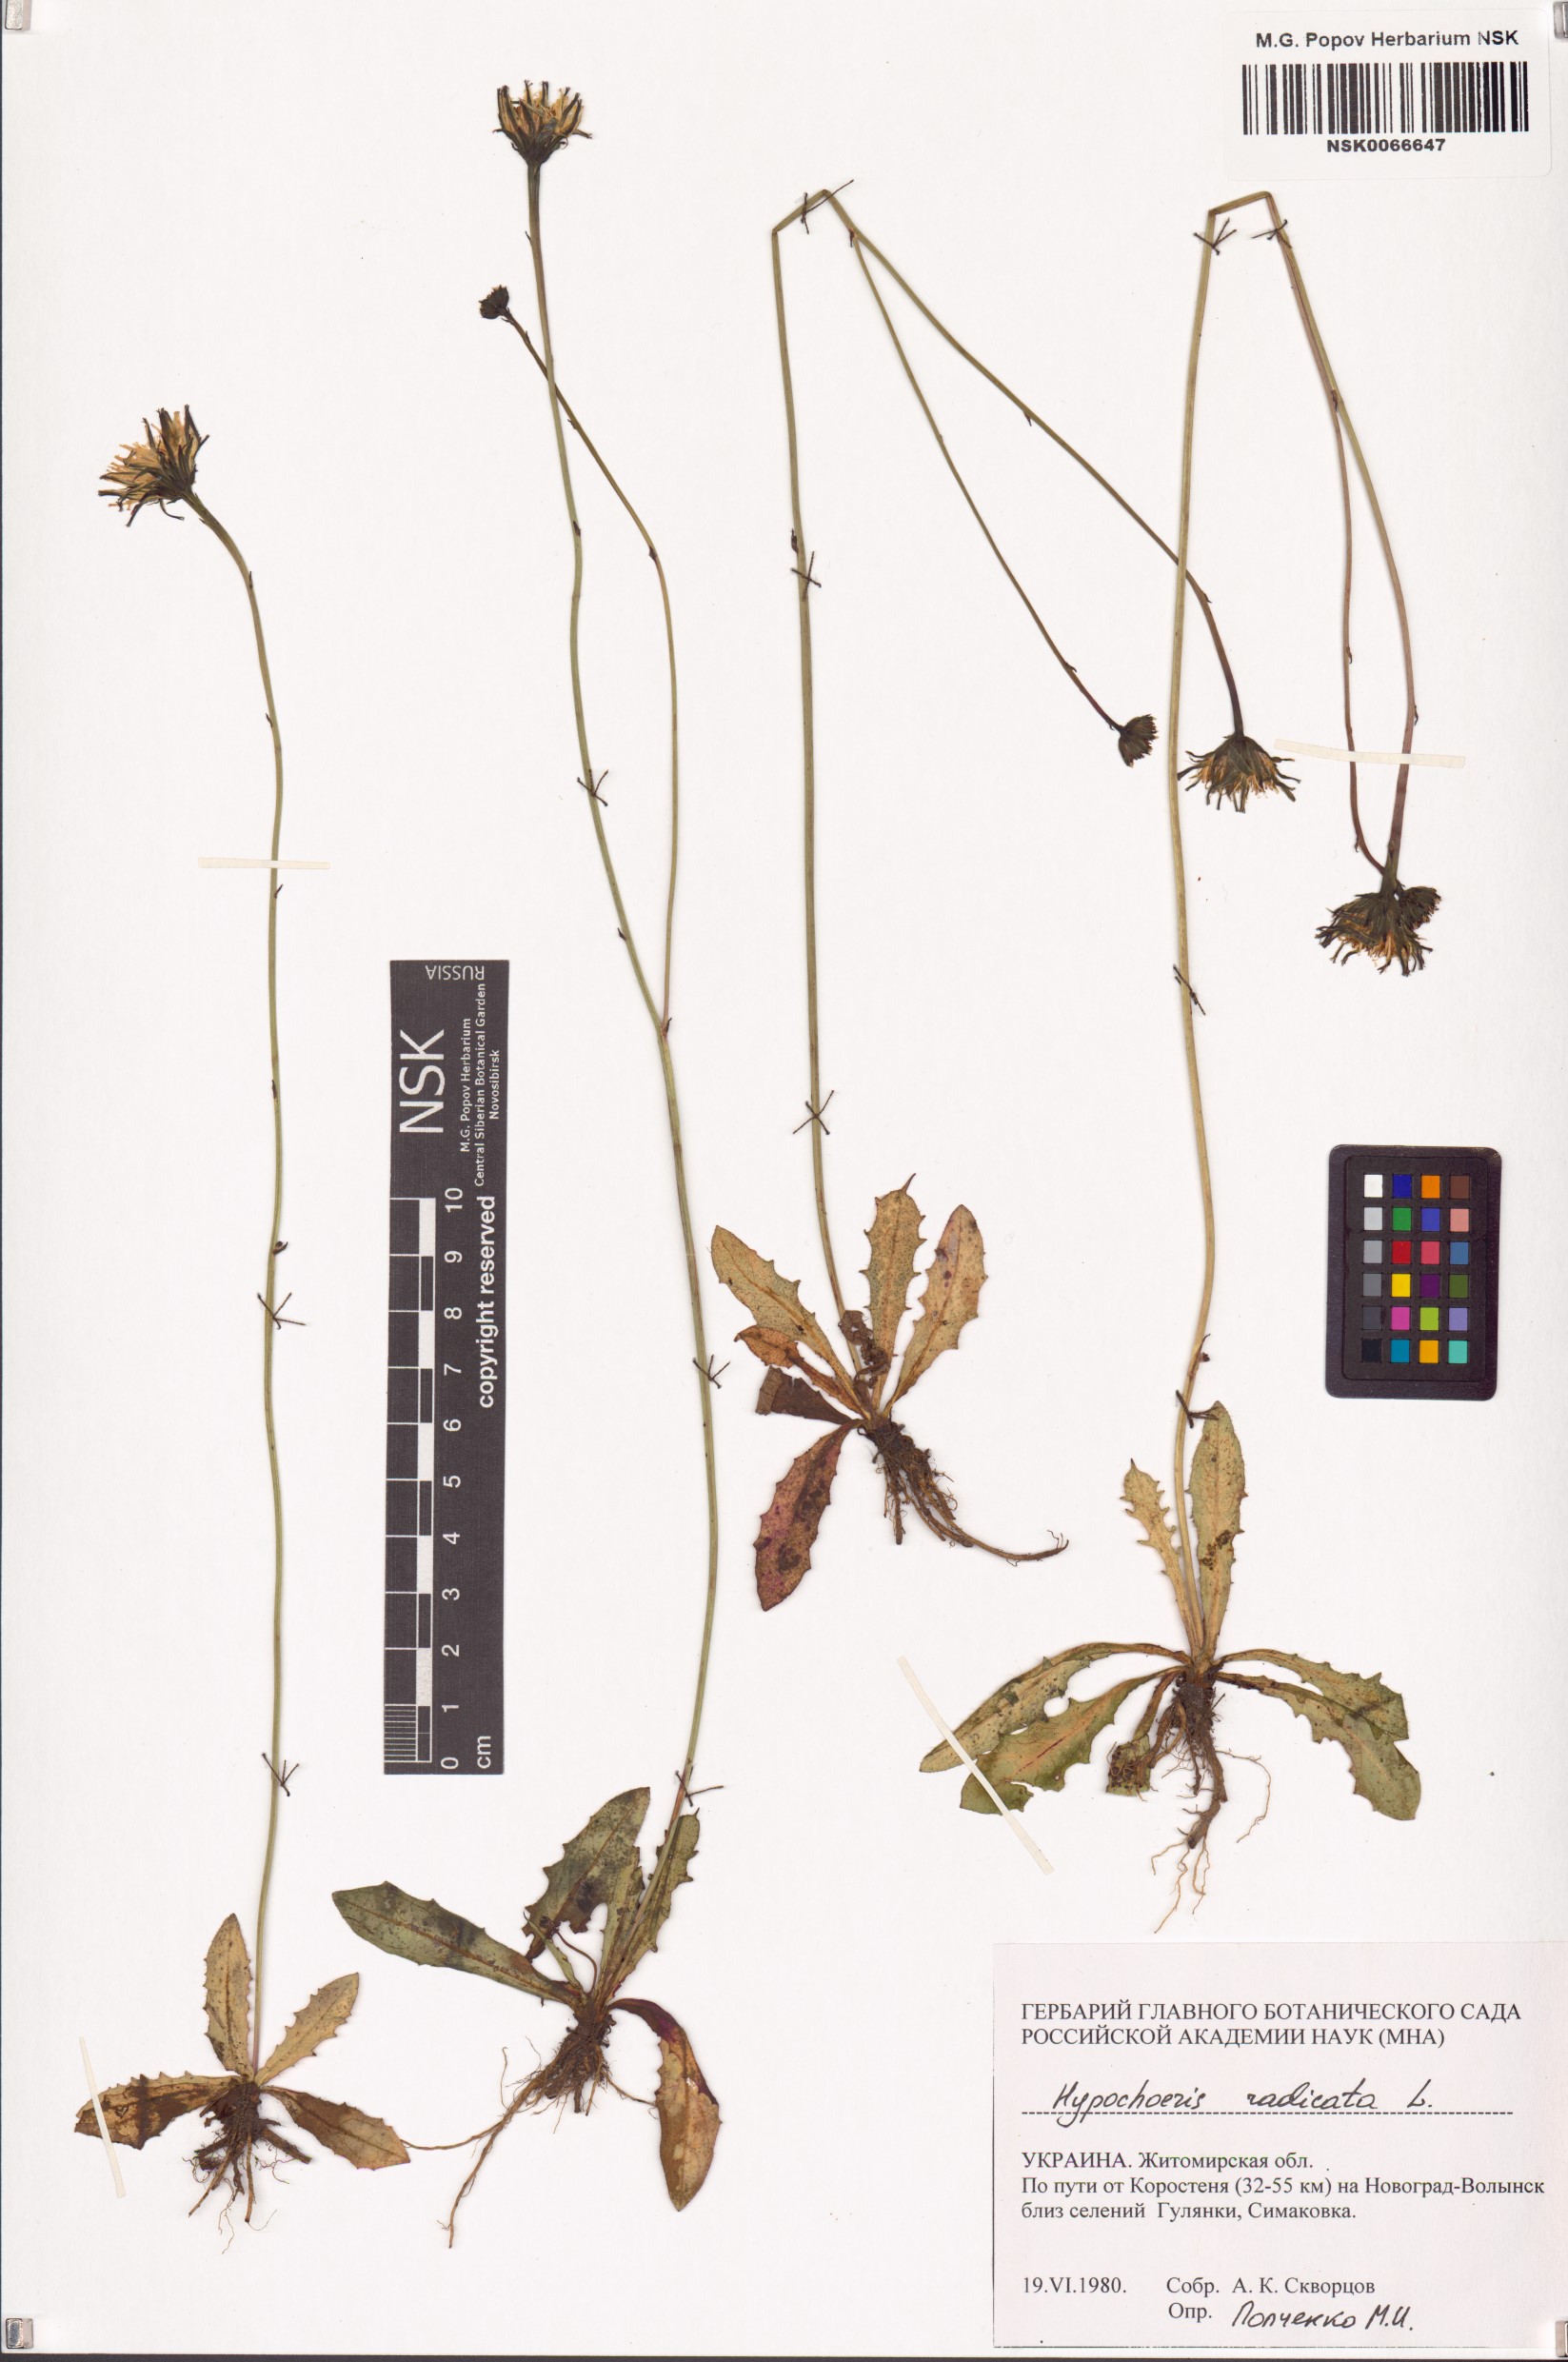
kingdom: Plantae
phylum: Tracheophyta
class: Magnoliopsida
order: Asterales
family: Asteraceae
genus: Hypochaeris
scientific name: Hypochaeris radicata
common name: Flatweed
